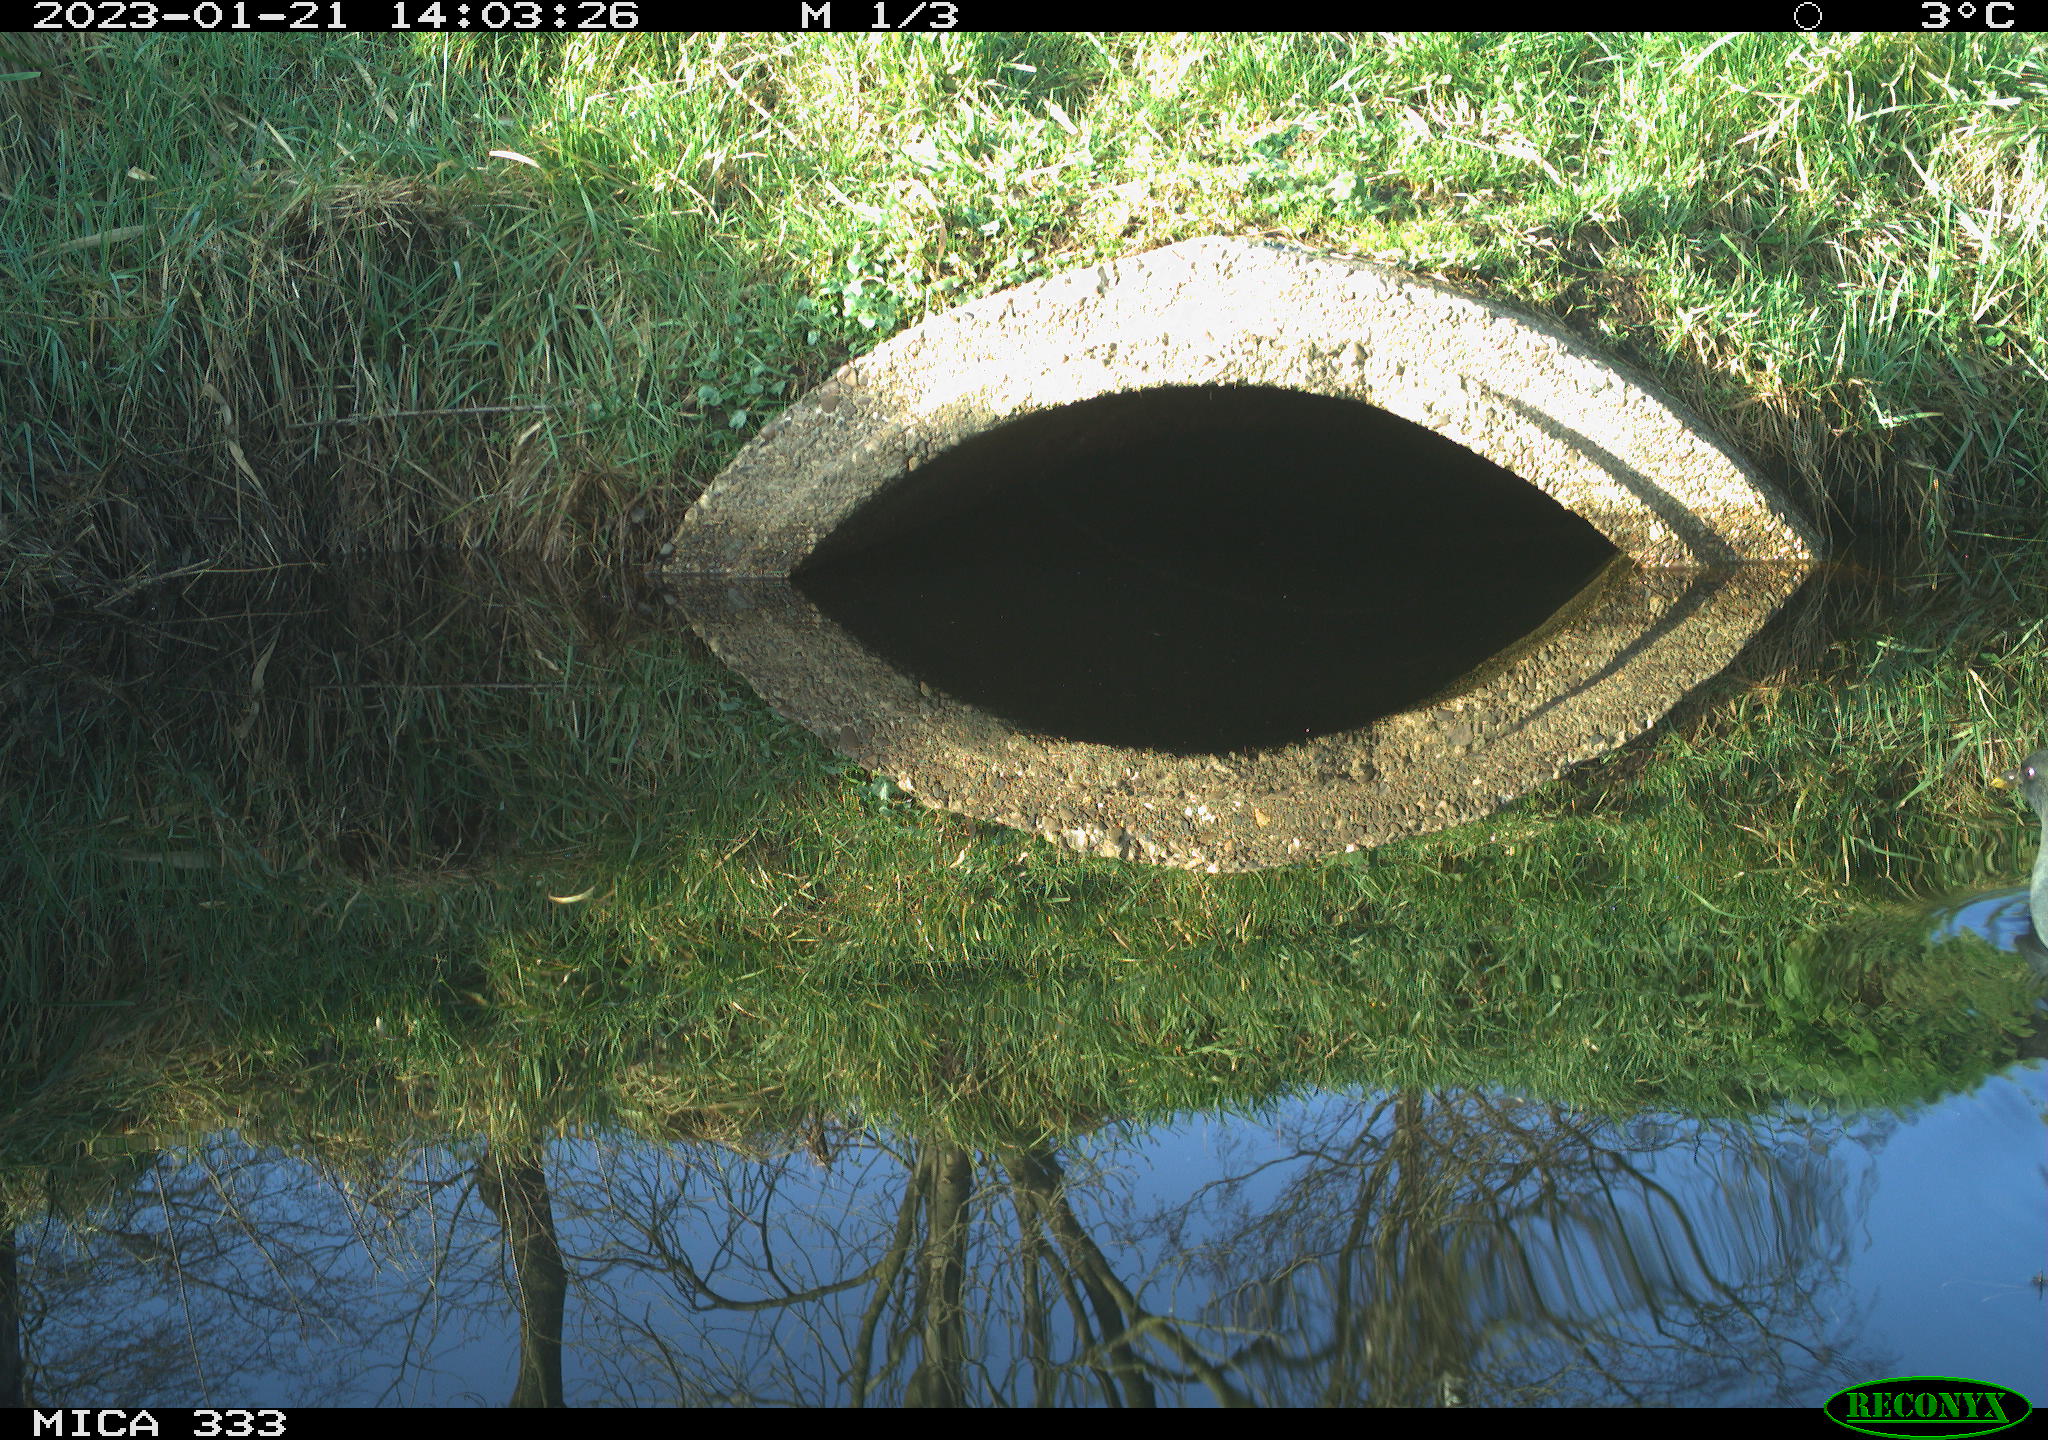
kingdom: Animalia
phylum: Chordata
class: Aves
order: Gruiformes
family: Rallidae
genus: Gallinula
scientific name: Gallinula chloropus
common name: Common moorhen
